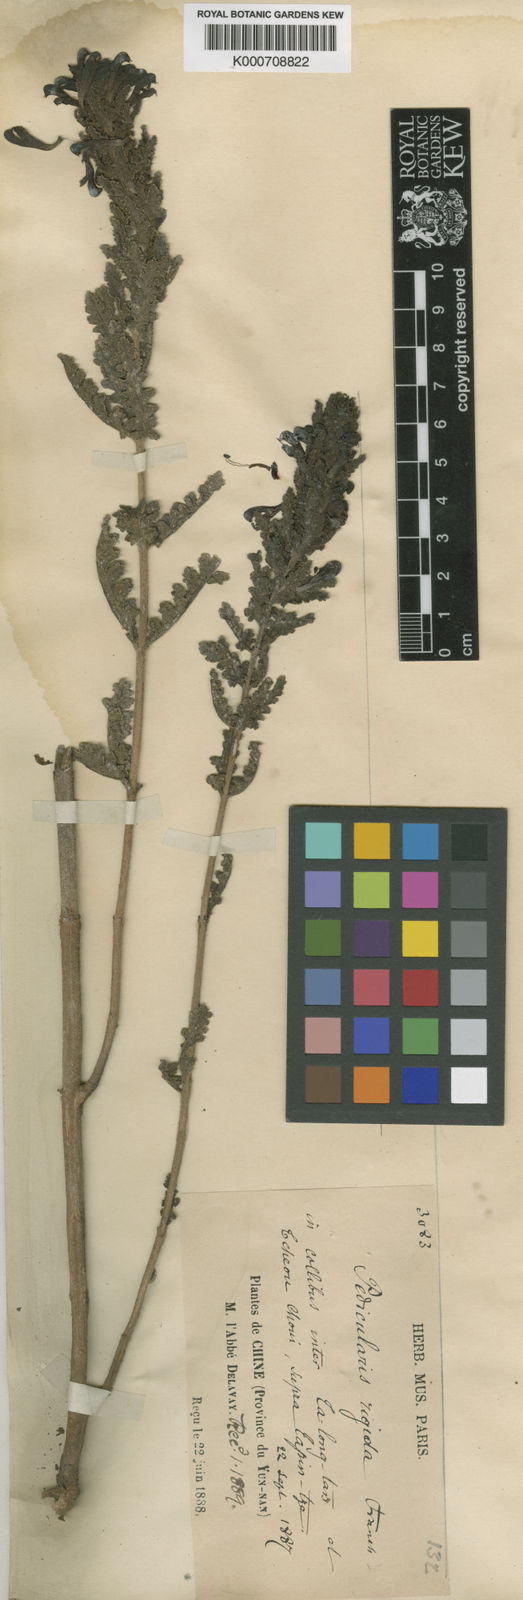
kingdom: Plantae
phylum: Tracheophyta
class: Magnoliopsida
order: Lamiales
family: Orobanchaceae
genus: Pedicularis
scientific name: Pedicularis rigida
